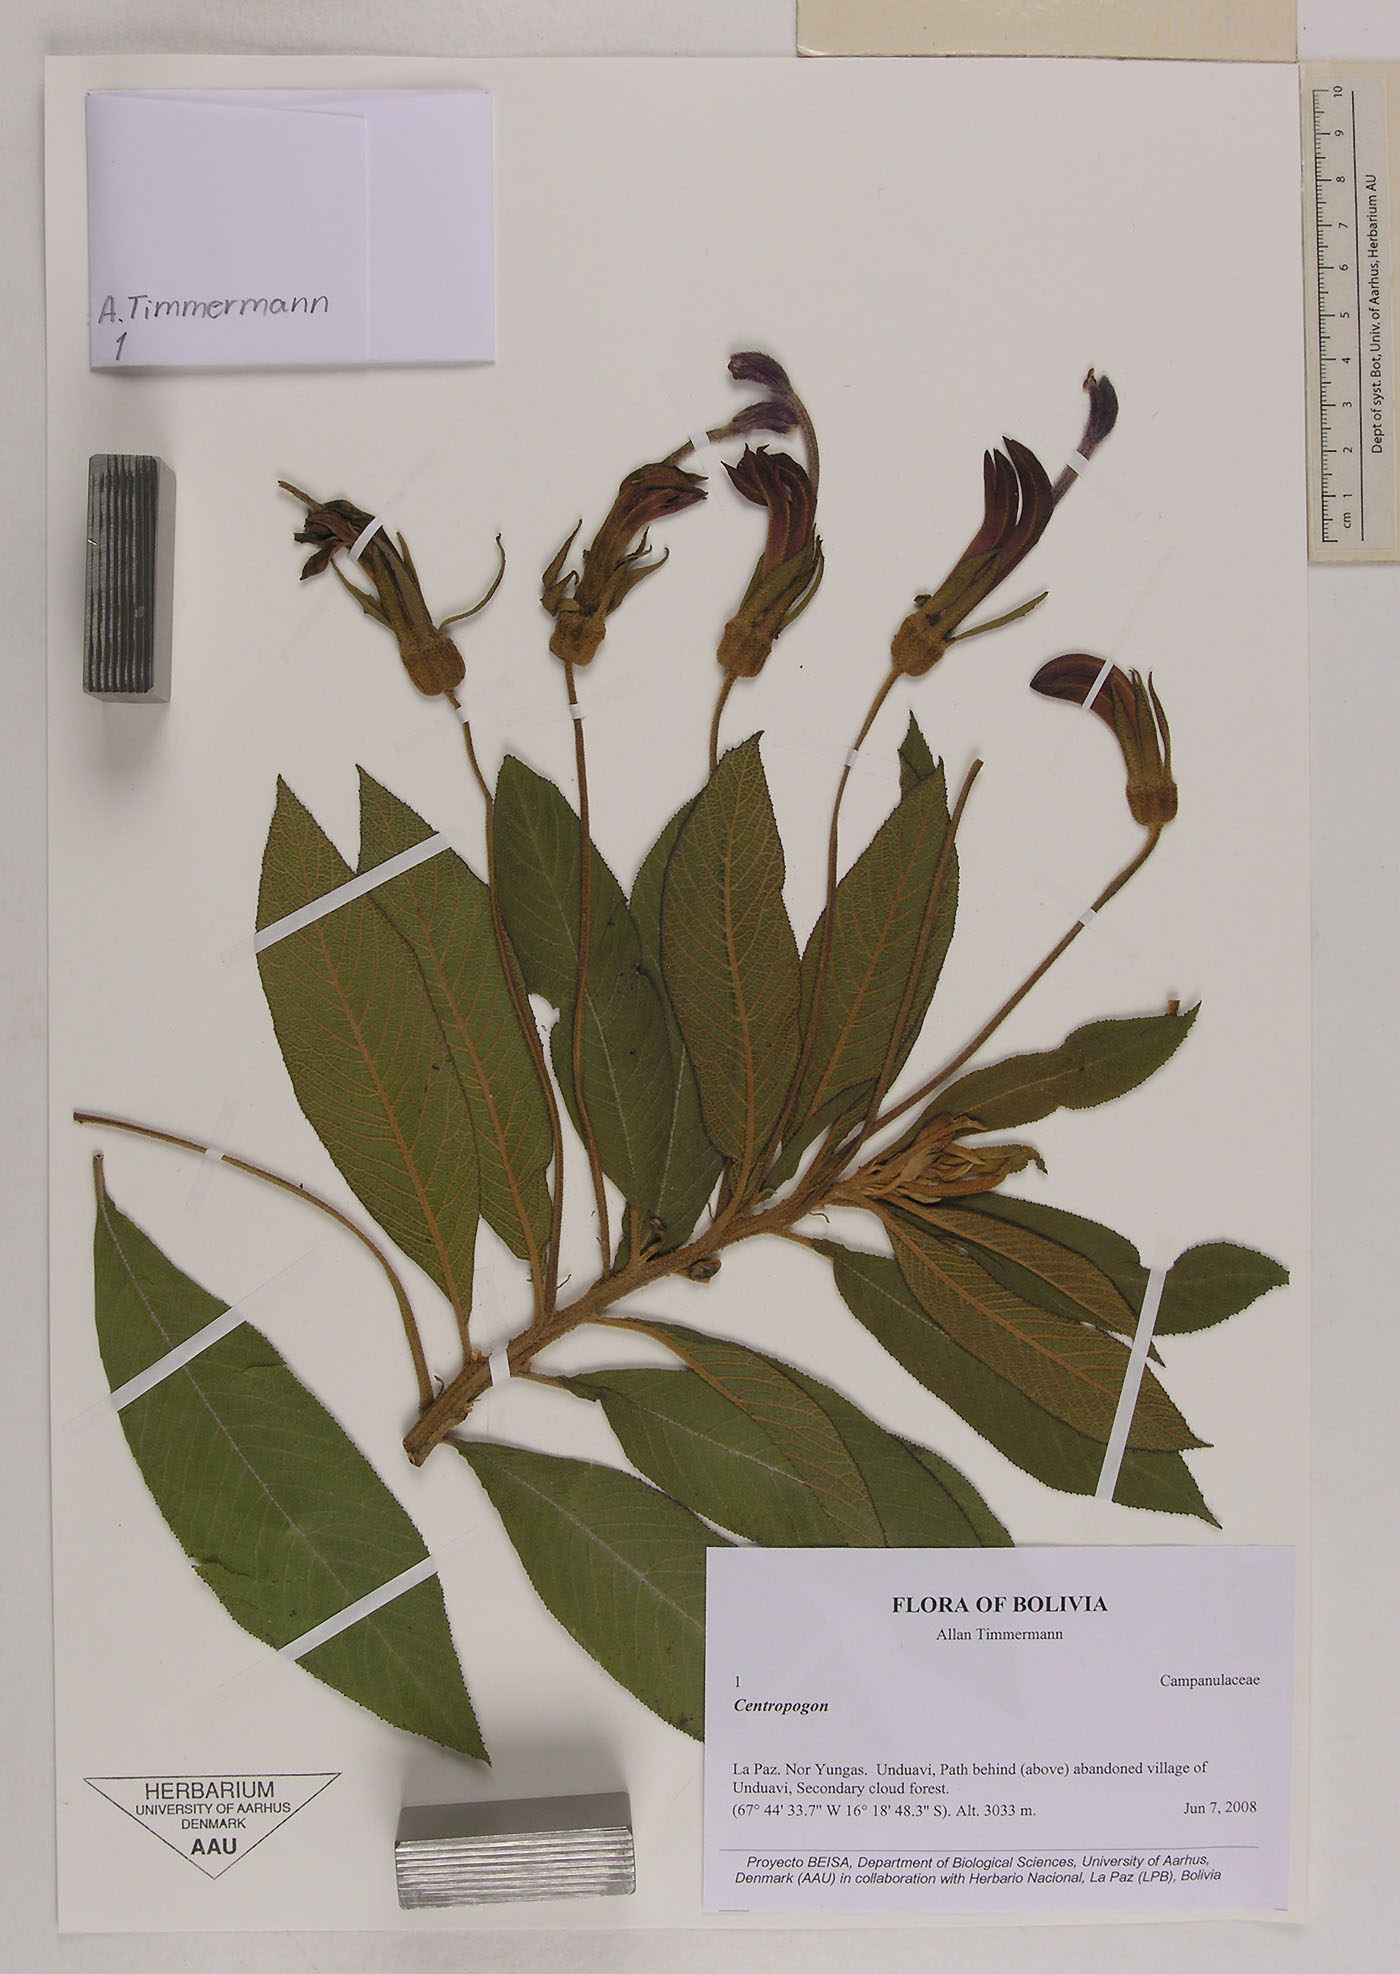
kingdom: Plantae
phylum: Tracheophyta
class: Magnoliopsida
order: Asterales
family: Campanulaceae
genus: Centropogon
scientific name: Centropogon
